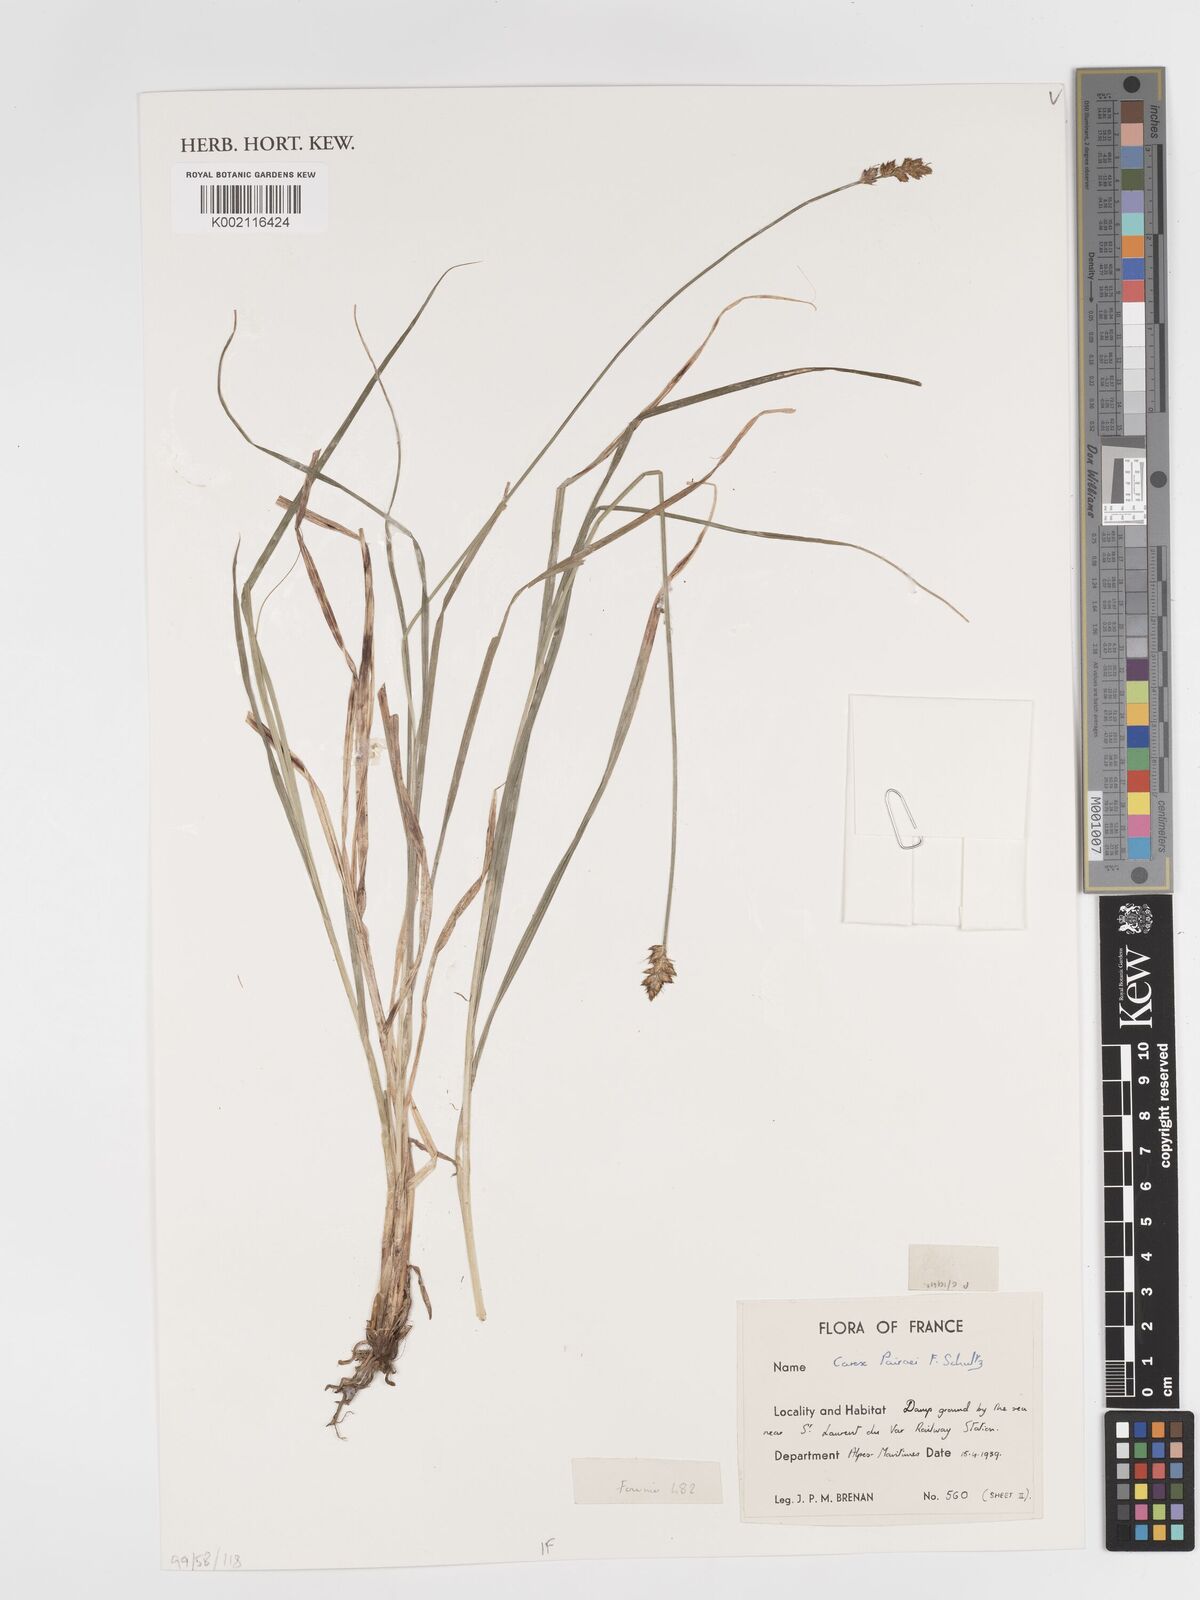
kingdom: Plantae
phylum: Tracheophyta
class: Liliopsida
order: Poales
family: Cyperaceae
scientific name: Cyperaceae
